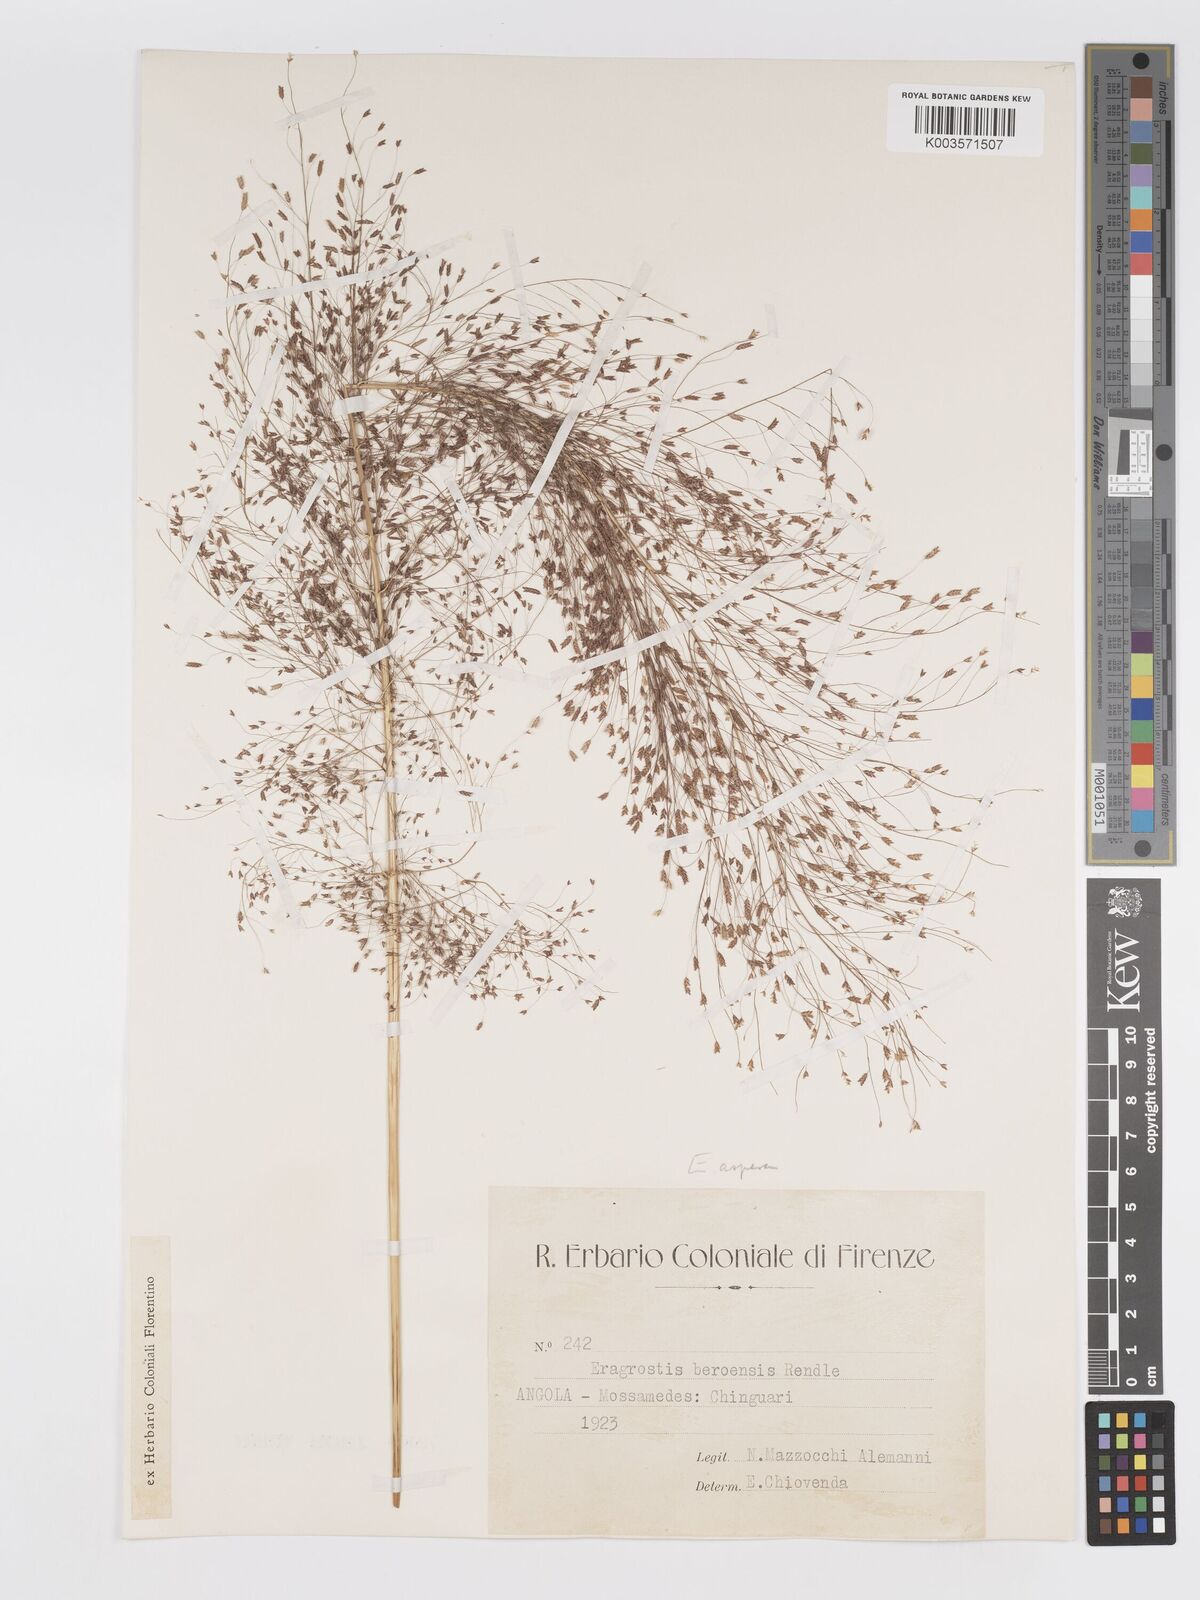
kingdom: Plantae
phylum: Tracheophyta
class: Liliopsida
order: Poales
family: Poaceae
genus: Eragrostis
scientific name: Eragrostis aspera
